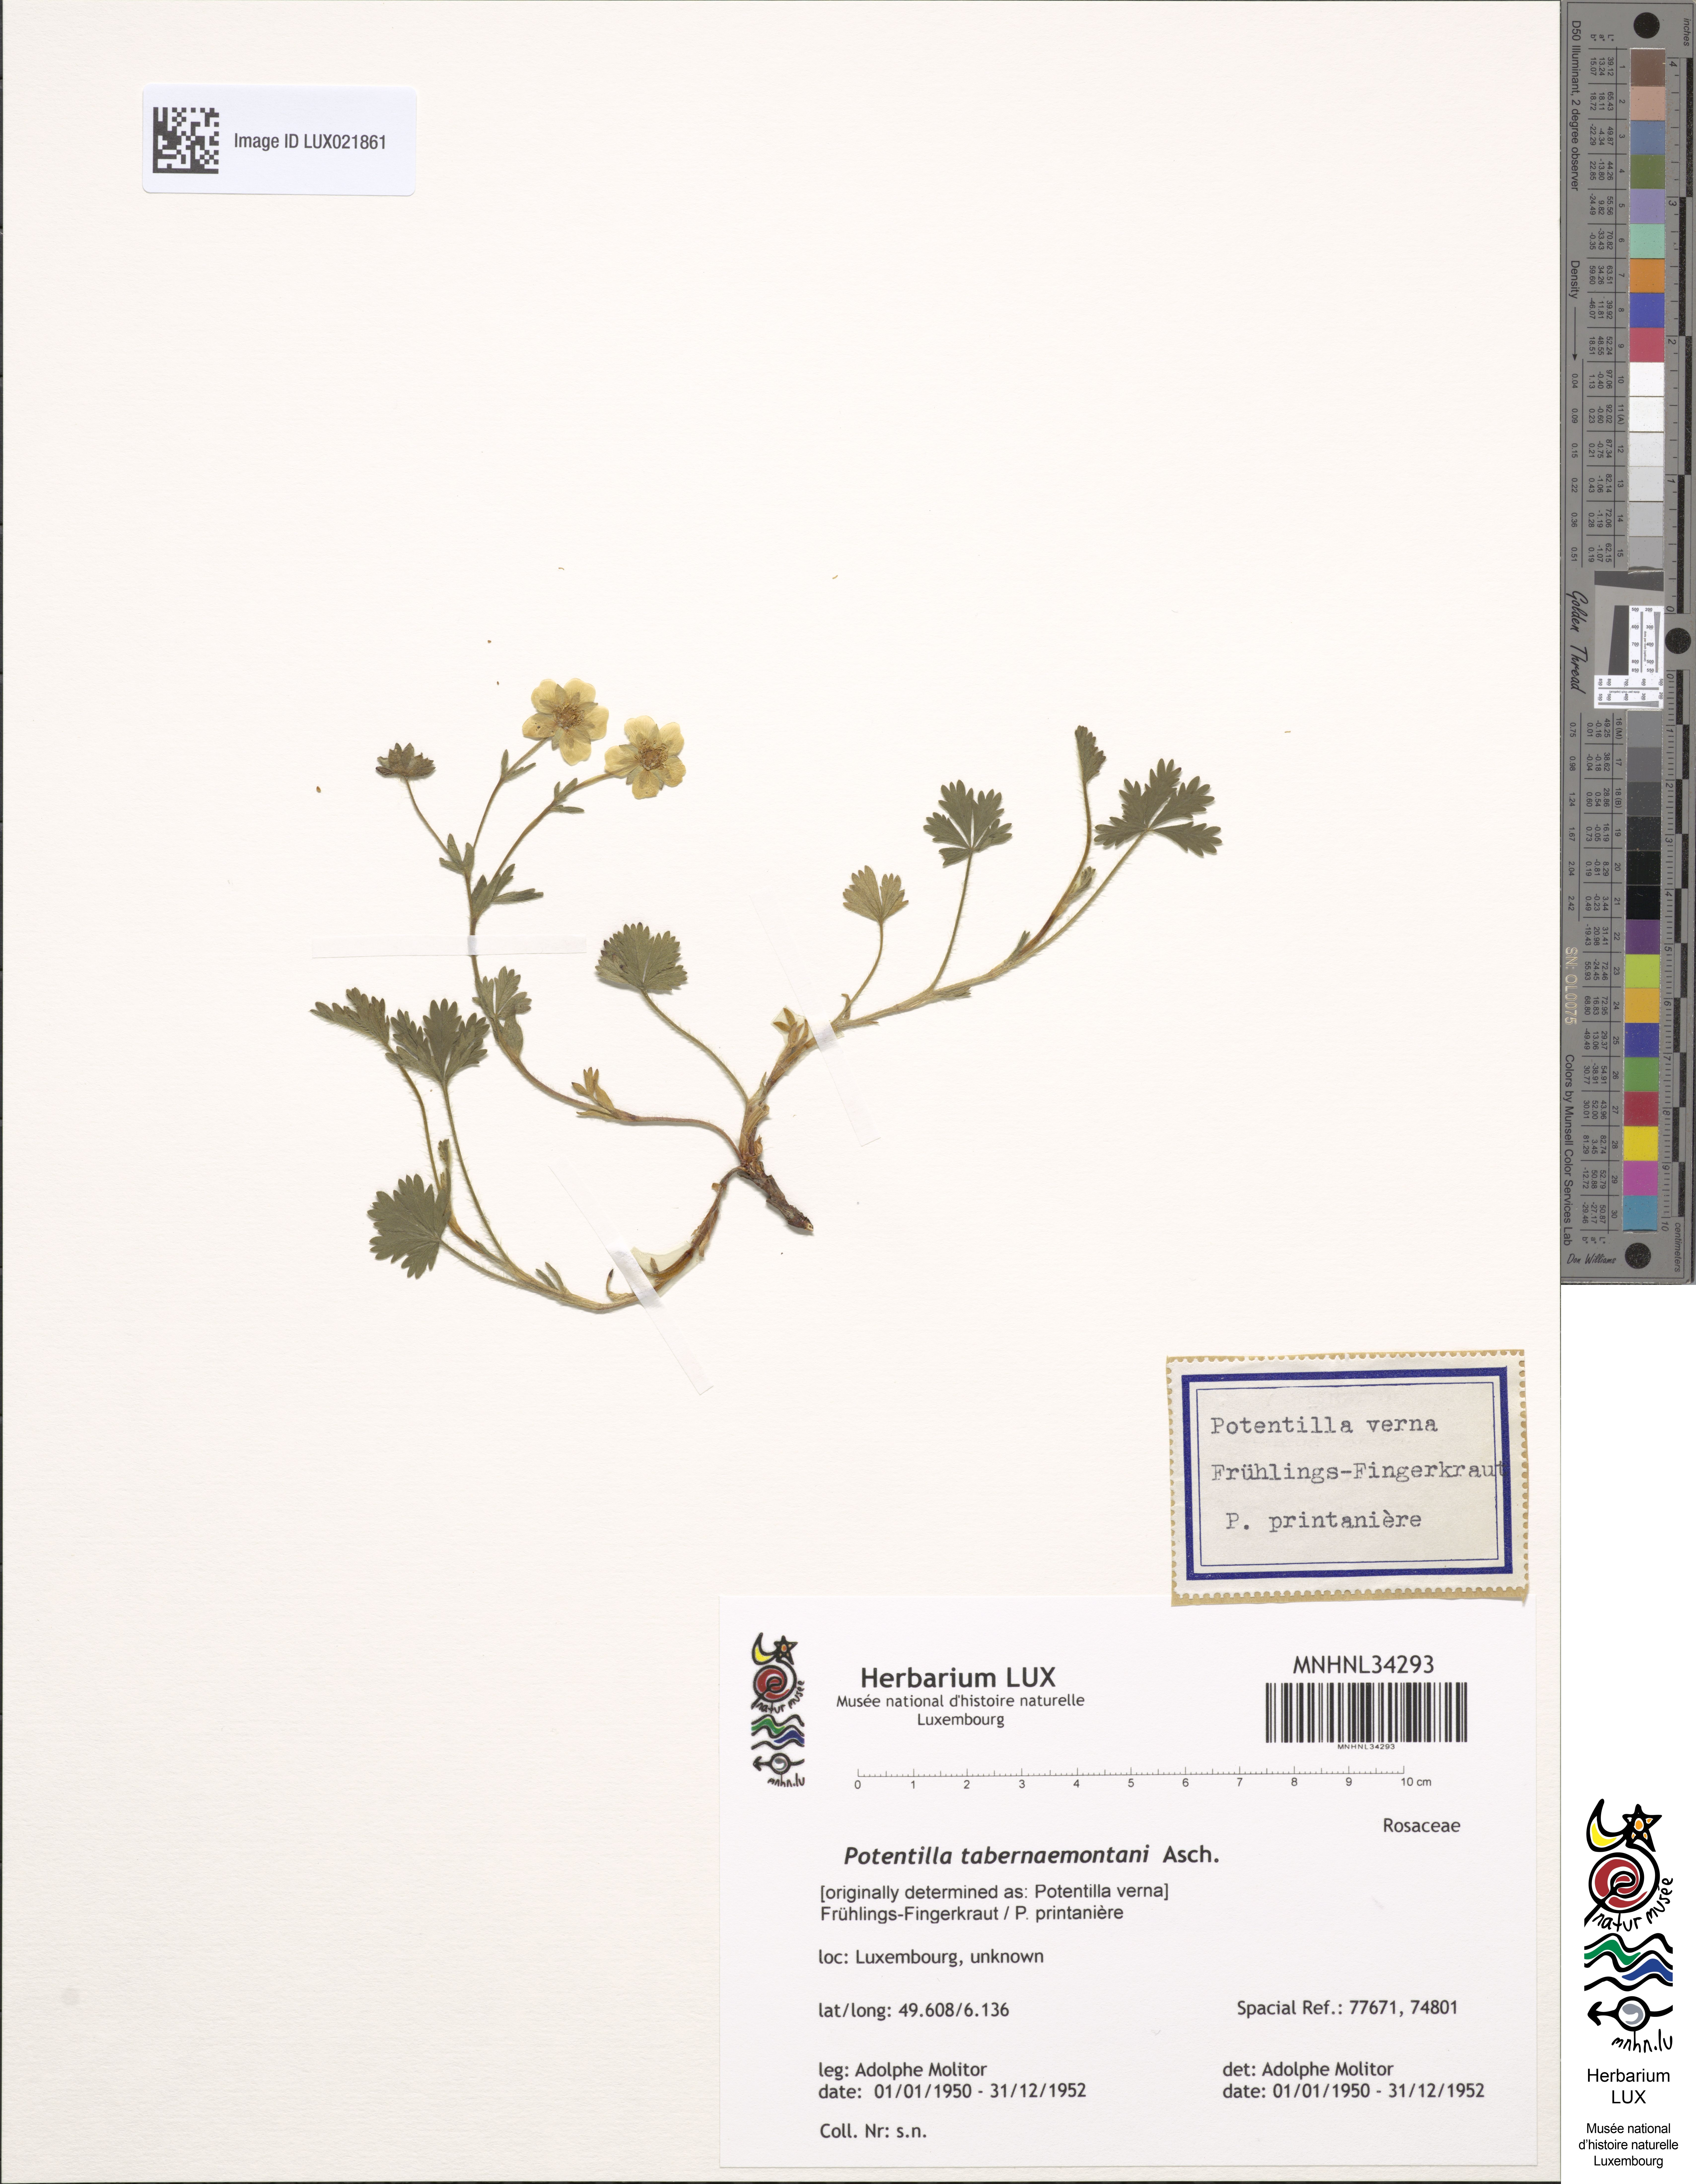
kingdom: Plantae
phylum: Tracheophyta
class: Magnoliopsida
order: Rosales
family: Rosaceae
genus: Potentilla
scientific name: Potentilla verna
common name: Spring cinquefoil
